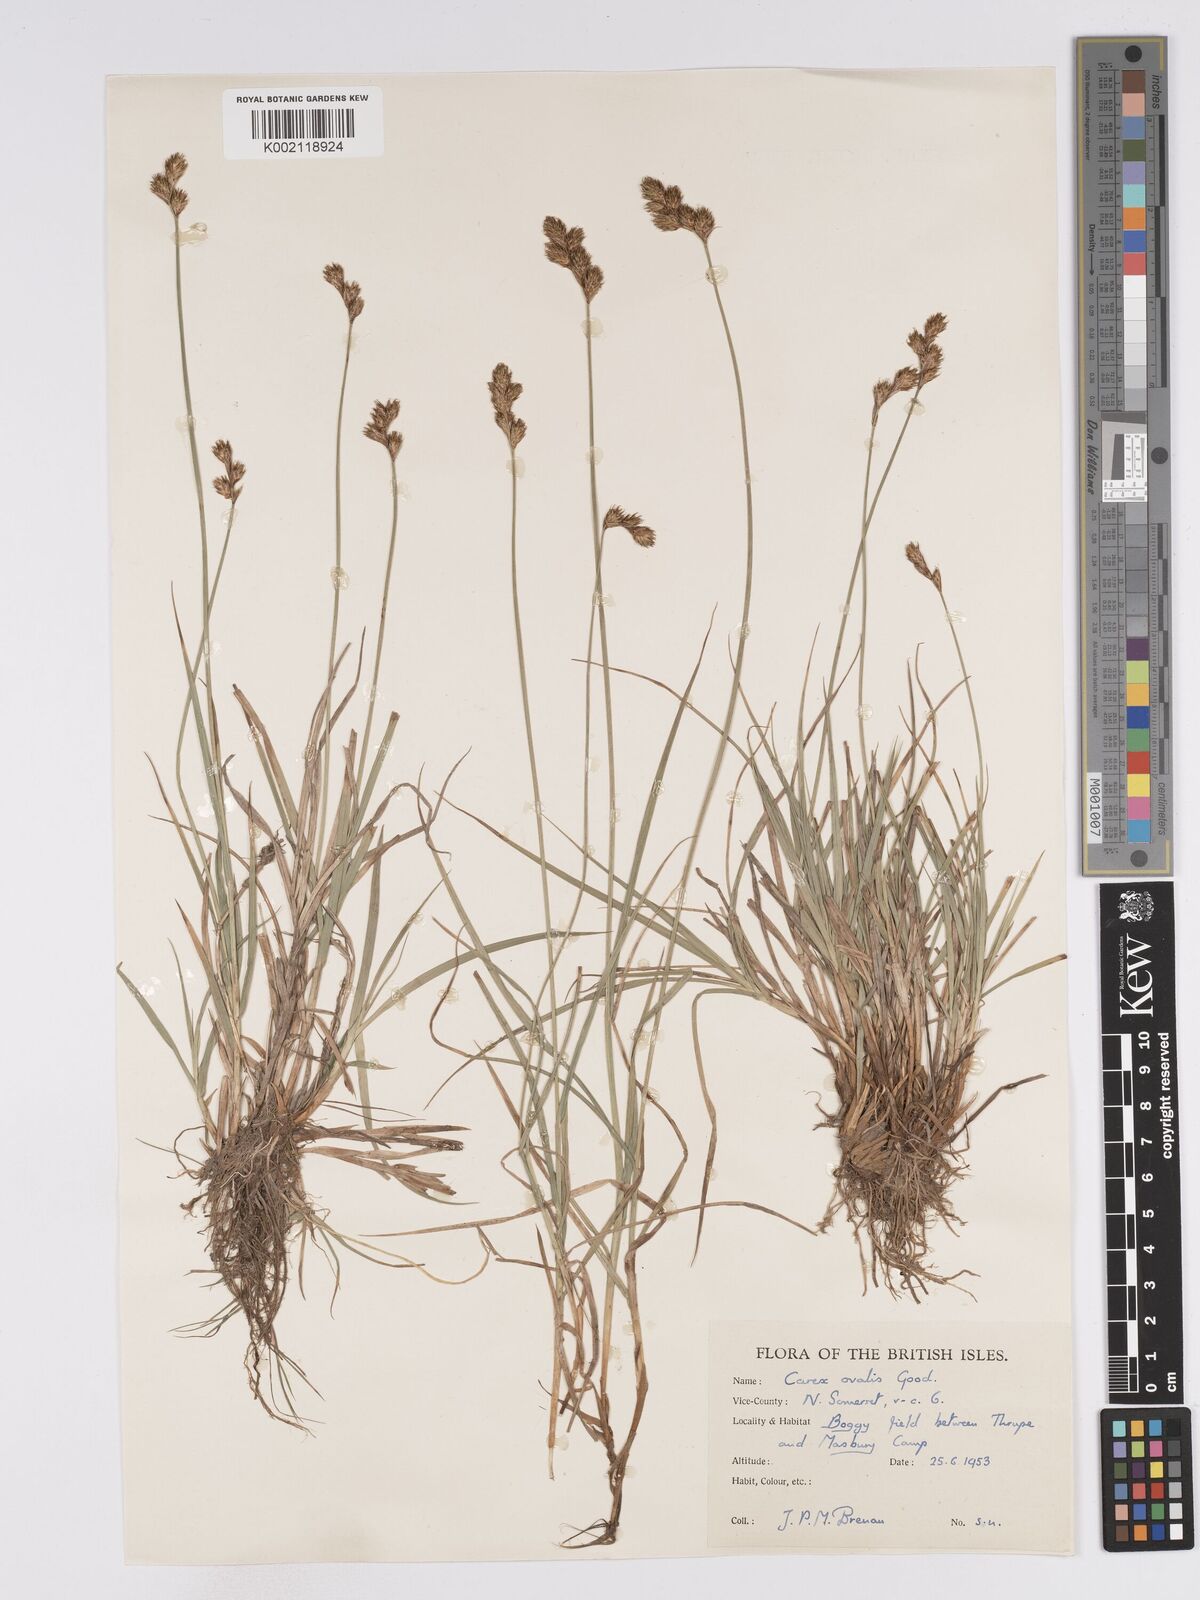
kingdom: Plantae
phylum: Tracheophyta
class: Liliopsida
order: Poales
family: Cyperaceae
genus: Carex
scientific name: Carex leporina
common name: Oval sedge
